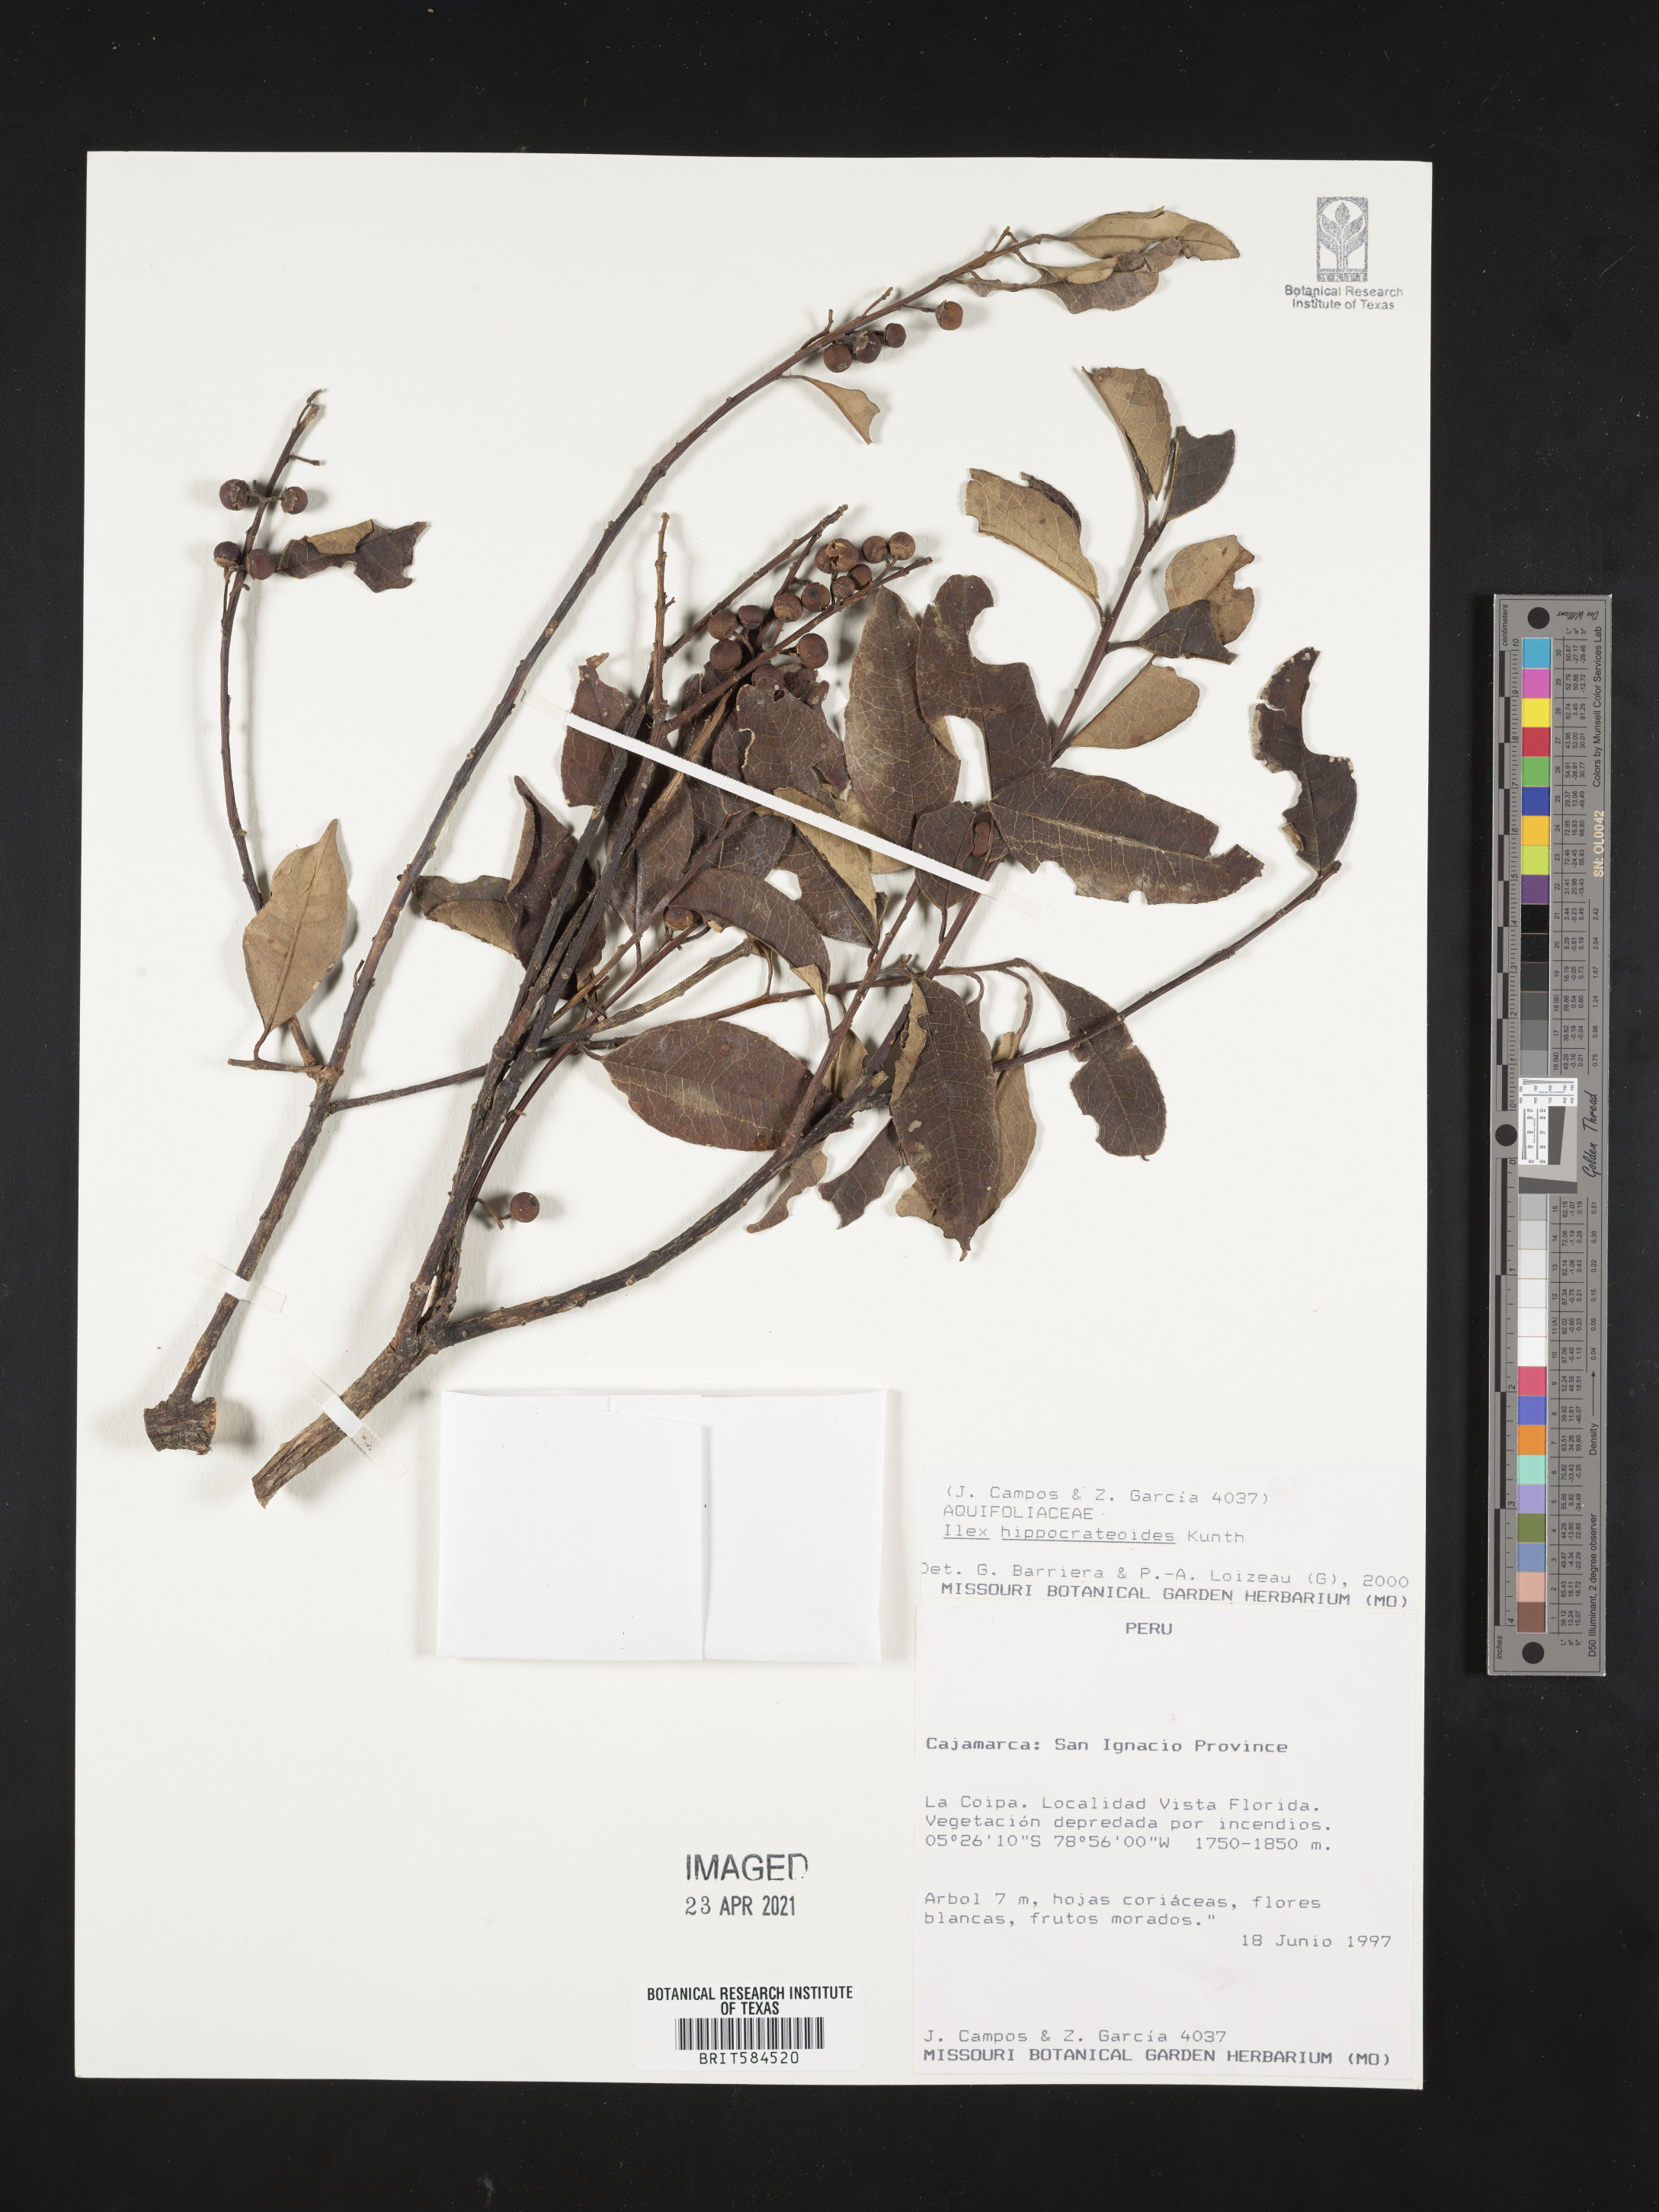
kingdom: Plantae
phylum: Tracheophyta
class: Magnoliopsida
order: Aquifoliales
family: Aquifoliaceae
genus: Ilex
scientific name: Ilex hippocrateoides
